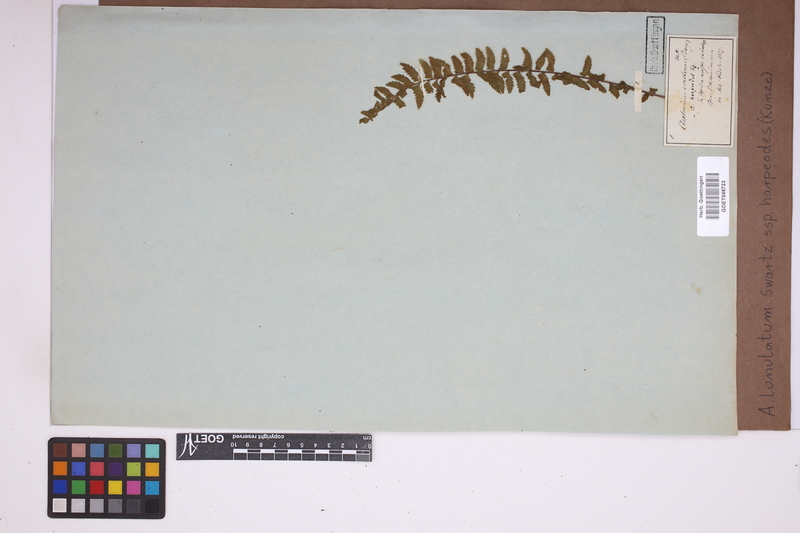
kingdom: Plantae
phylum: Tracheophyta
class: Polypodiopsida
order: Polypodiales
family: Aspleniaceae
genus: Asplenium
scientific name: Asplenium harpeodes
